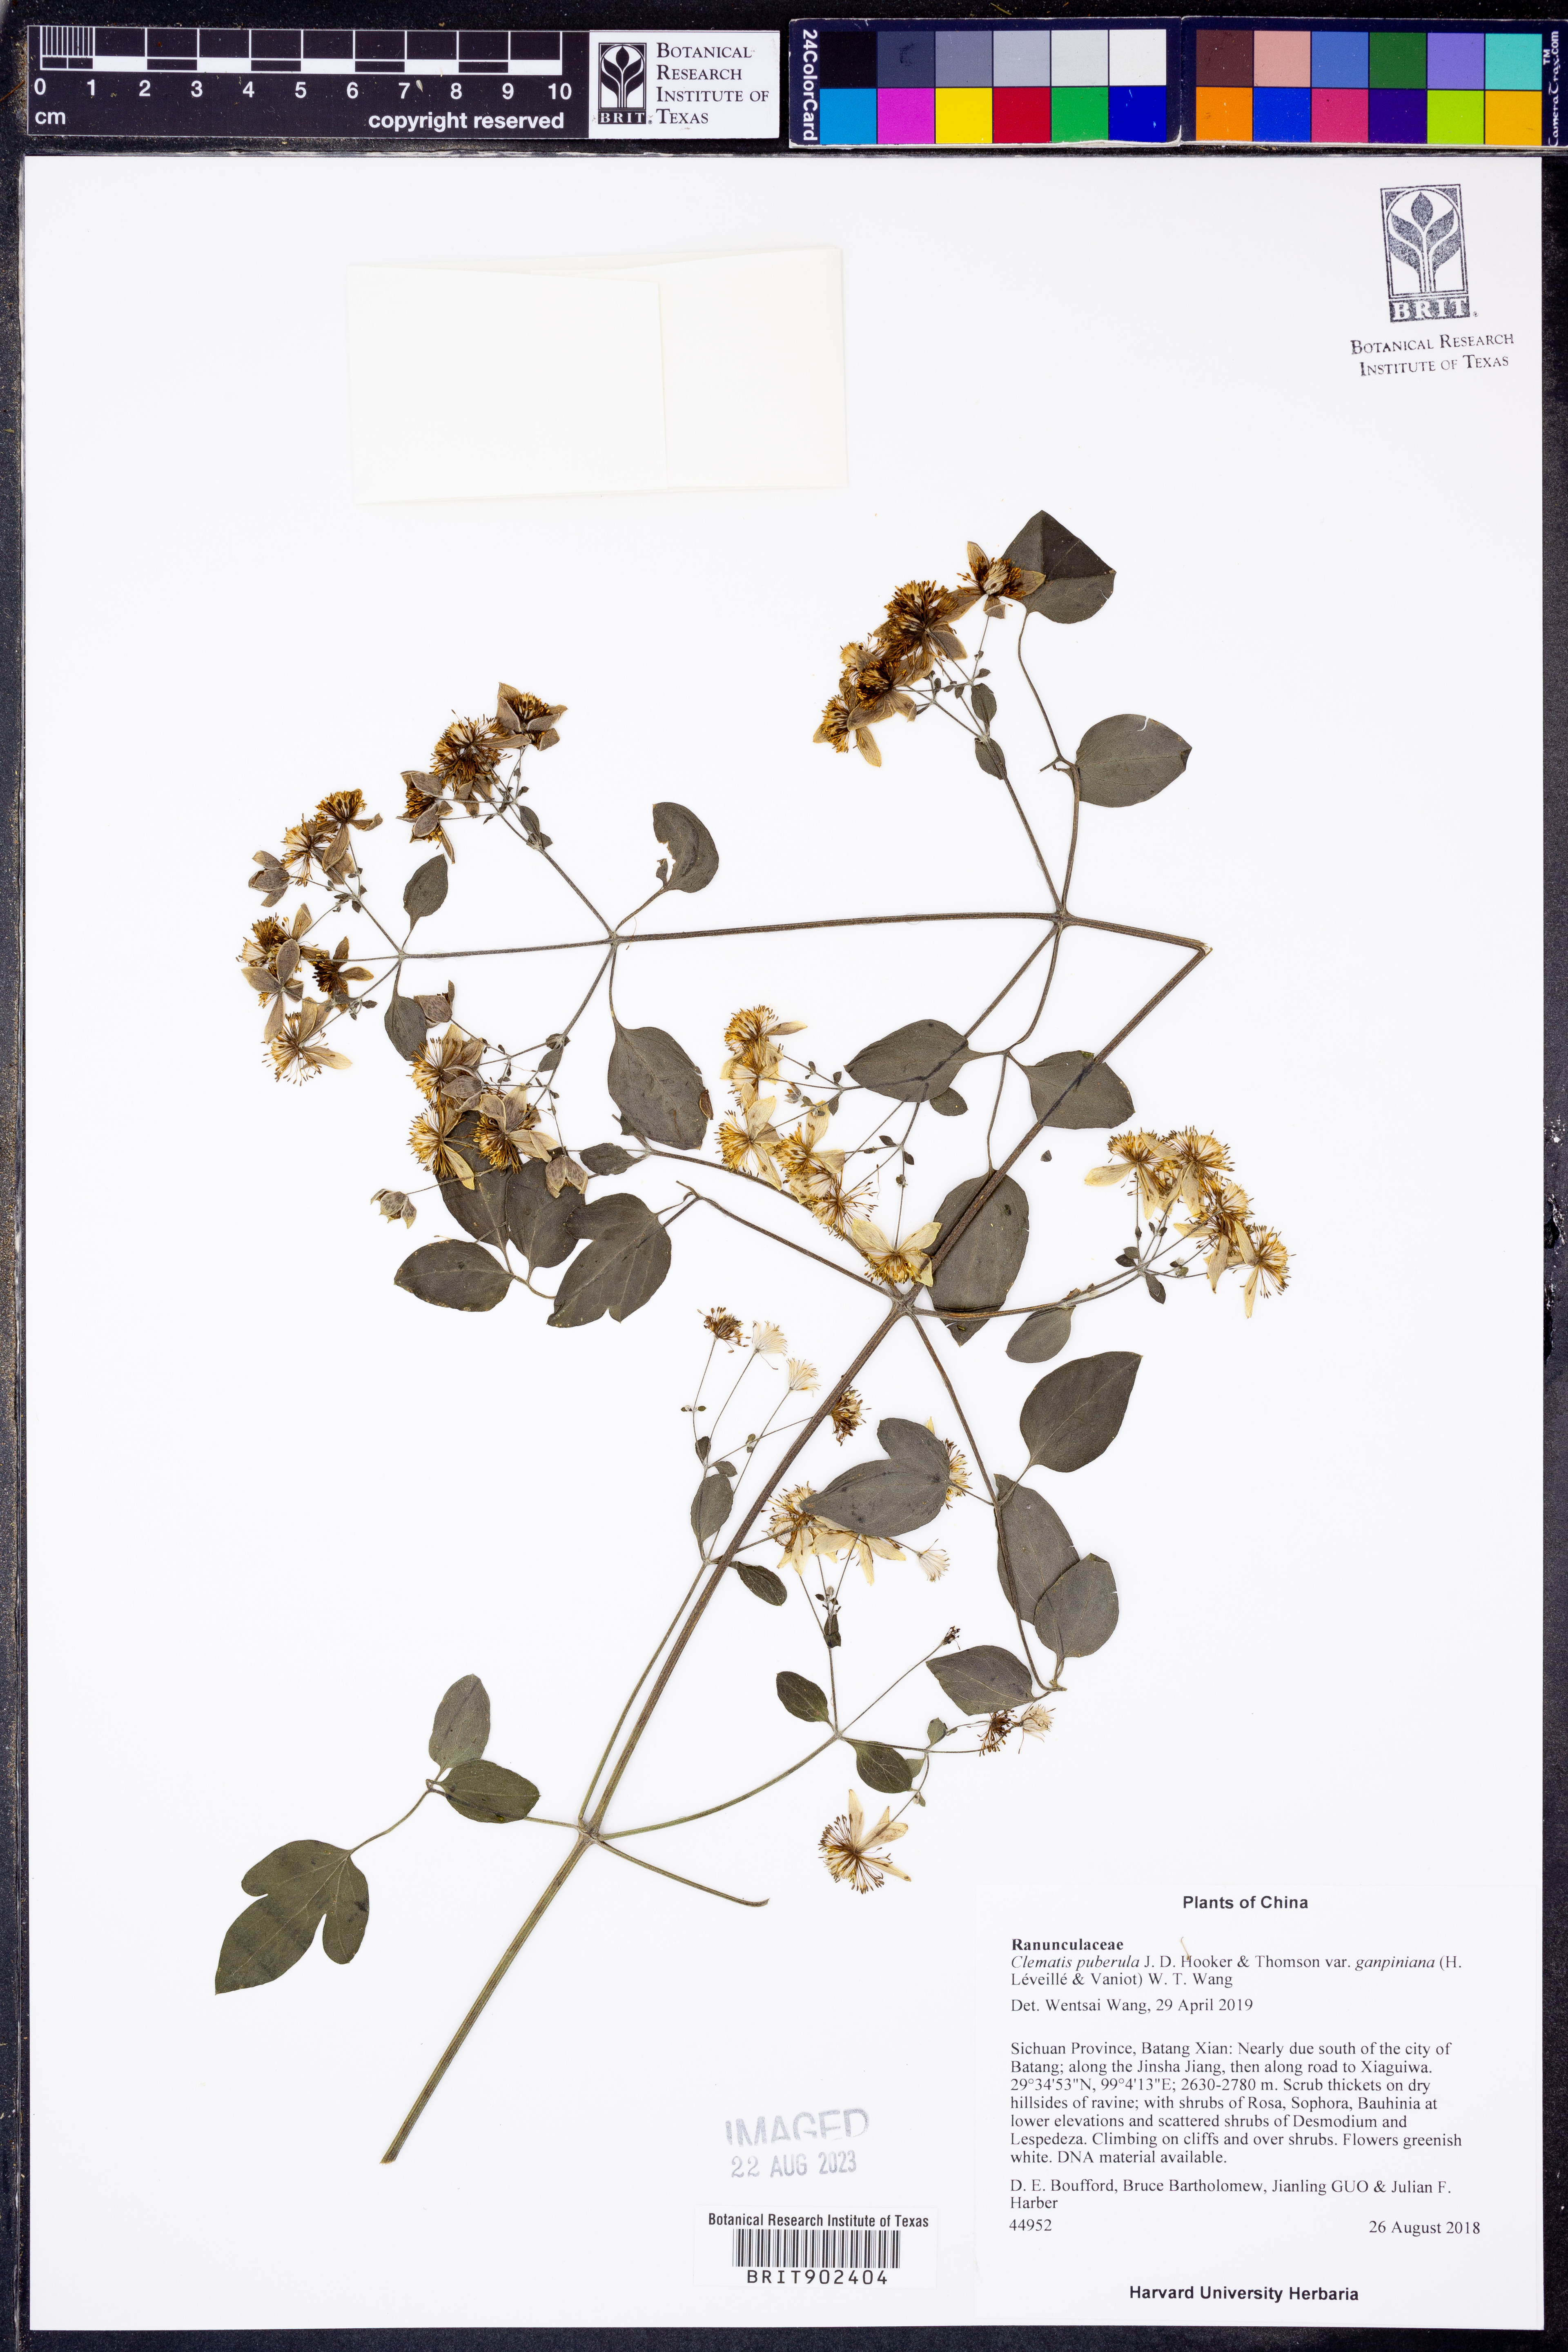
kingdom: Plantae
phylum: Tracheophyta
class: Magnoliopsida
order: Ranunculales
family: Ranunculaceae
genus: Clematis
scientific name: Clematis puberula
